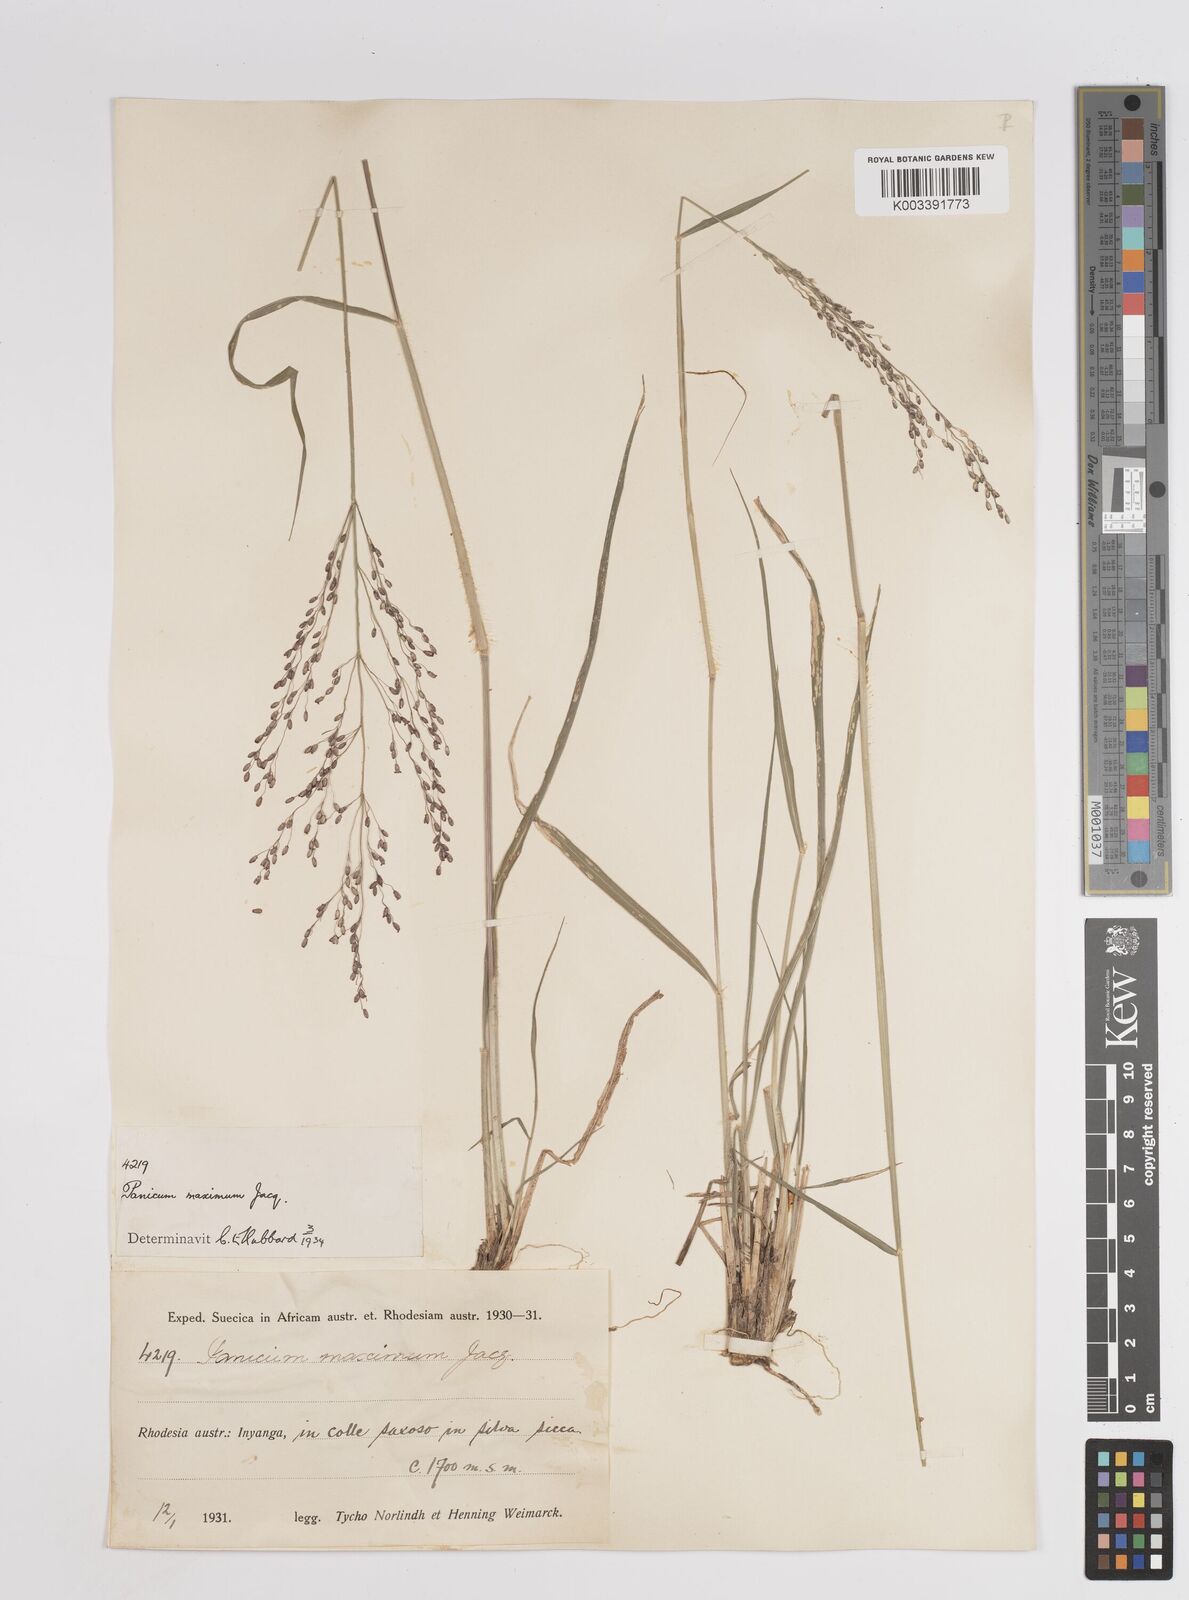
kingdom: Plantae
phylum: Tracheophyta
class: Liliopsida
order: Poales
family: Poaceae
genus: Megathyrsus
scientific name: Megathyrsus maximus
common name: Guineagrass
